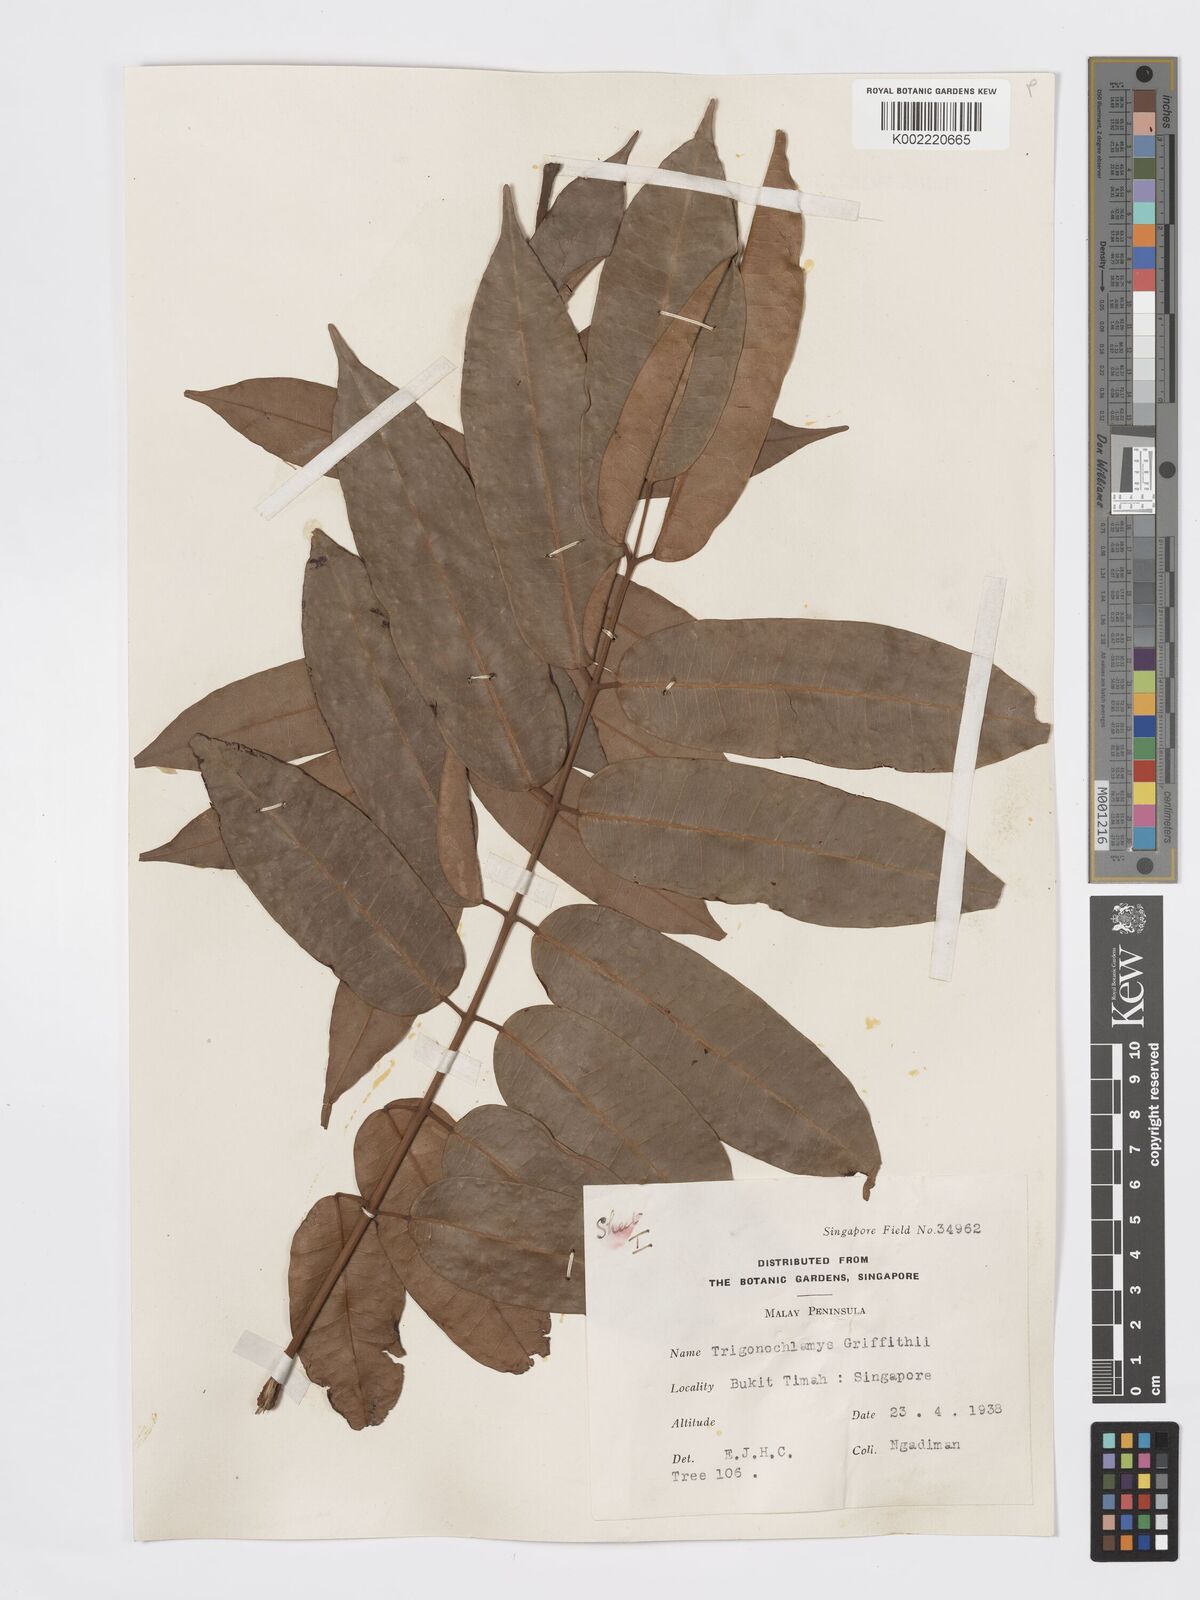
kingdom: Plantae
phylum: Tracheophyta
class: Magnoliopsida
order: Sapindales
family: Burseraceae
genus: Santiria
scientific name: Santiria griffithii
